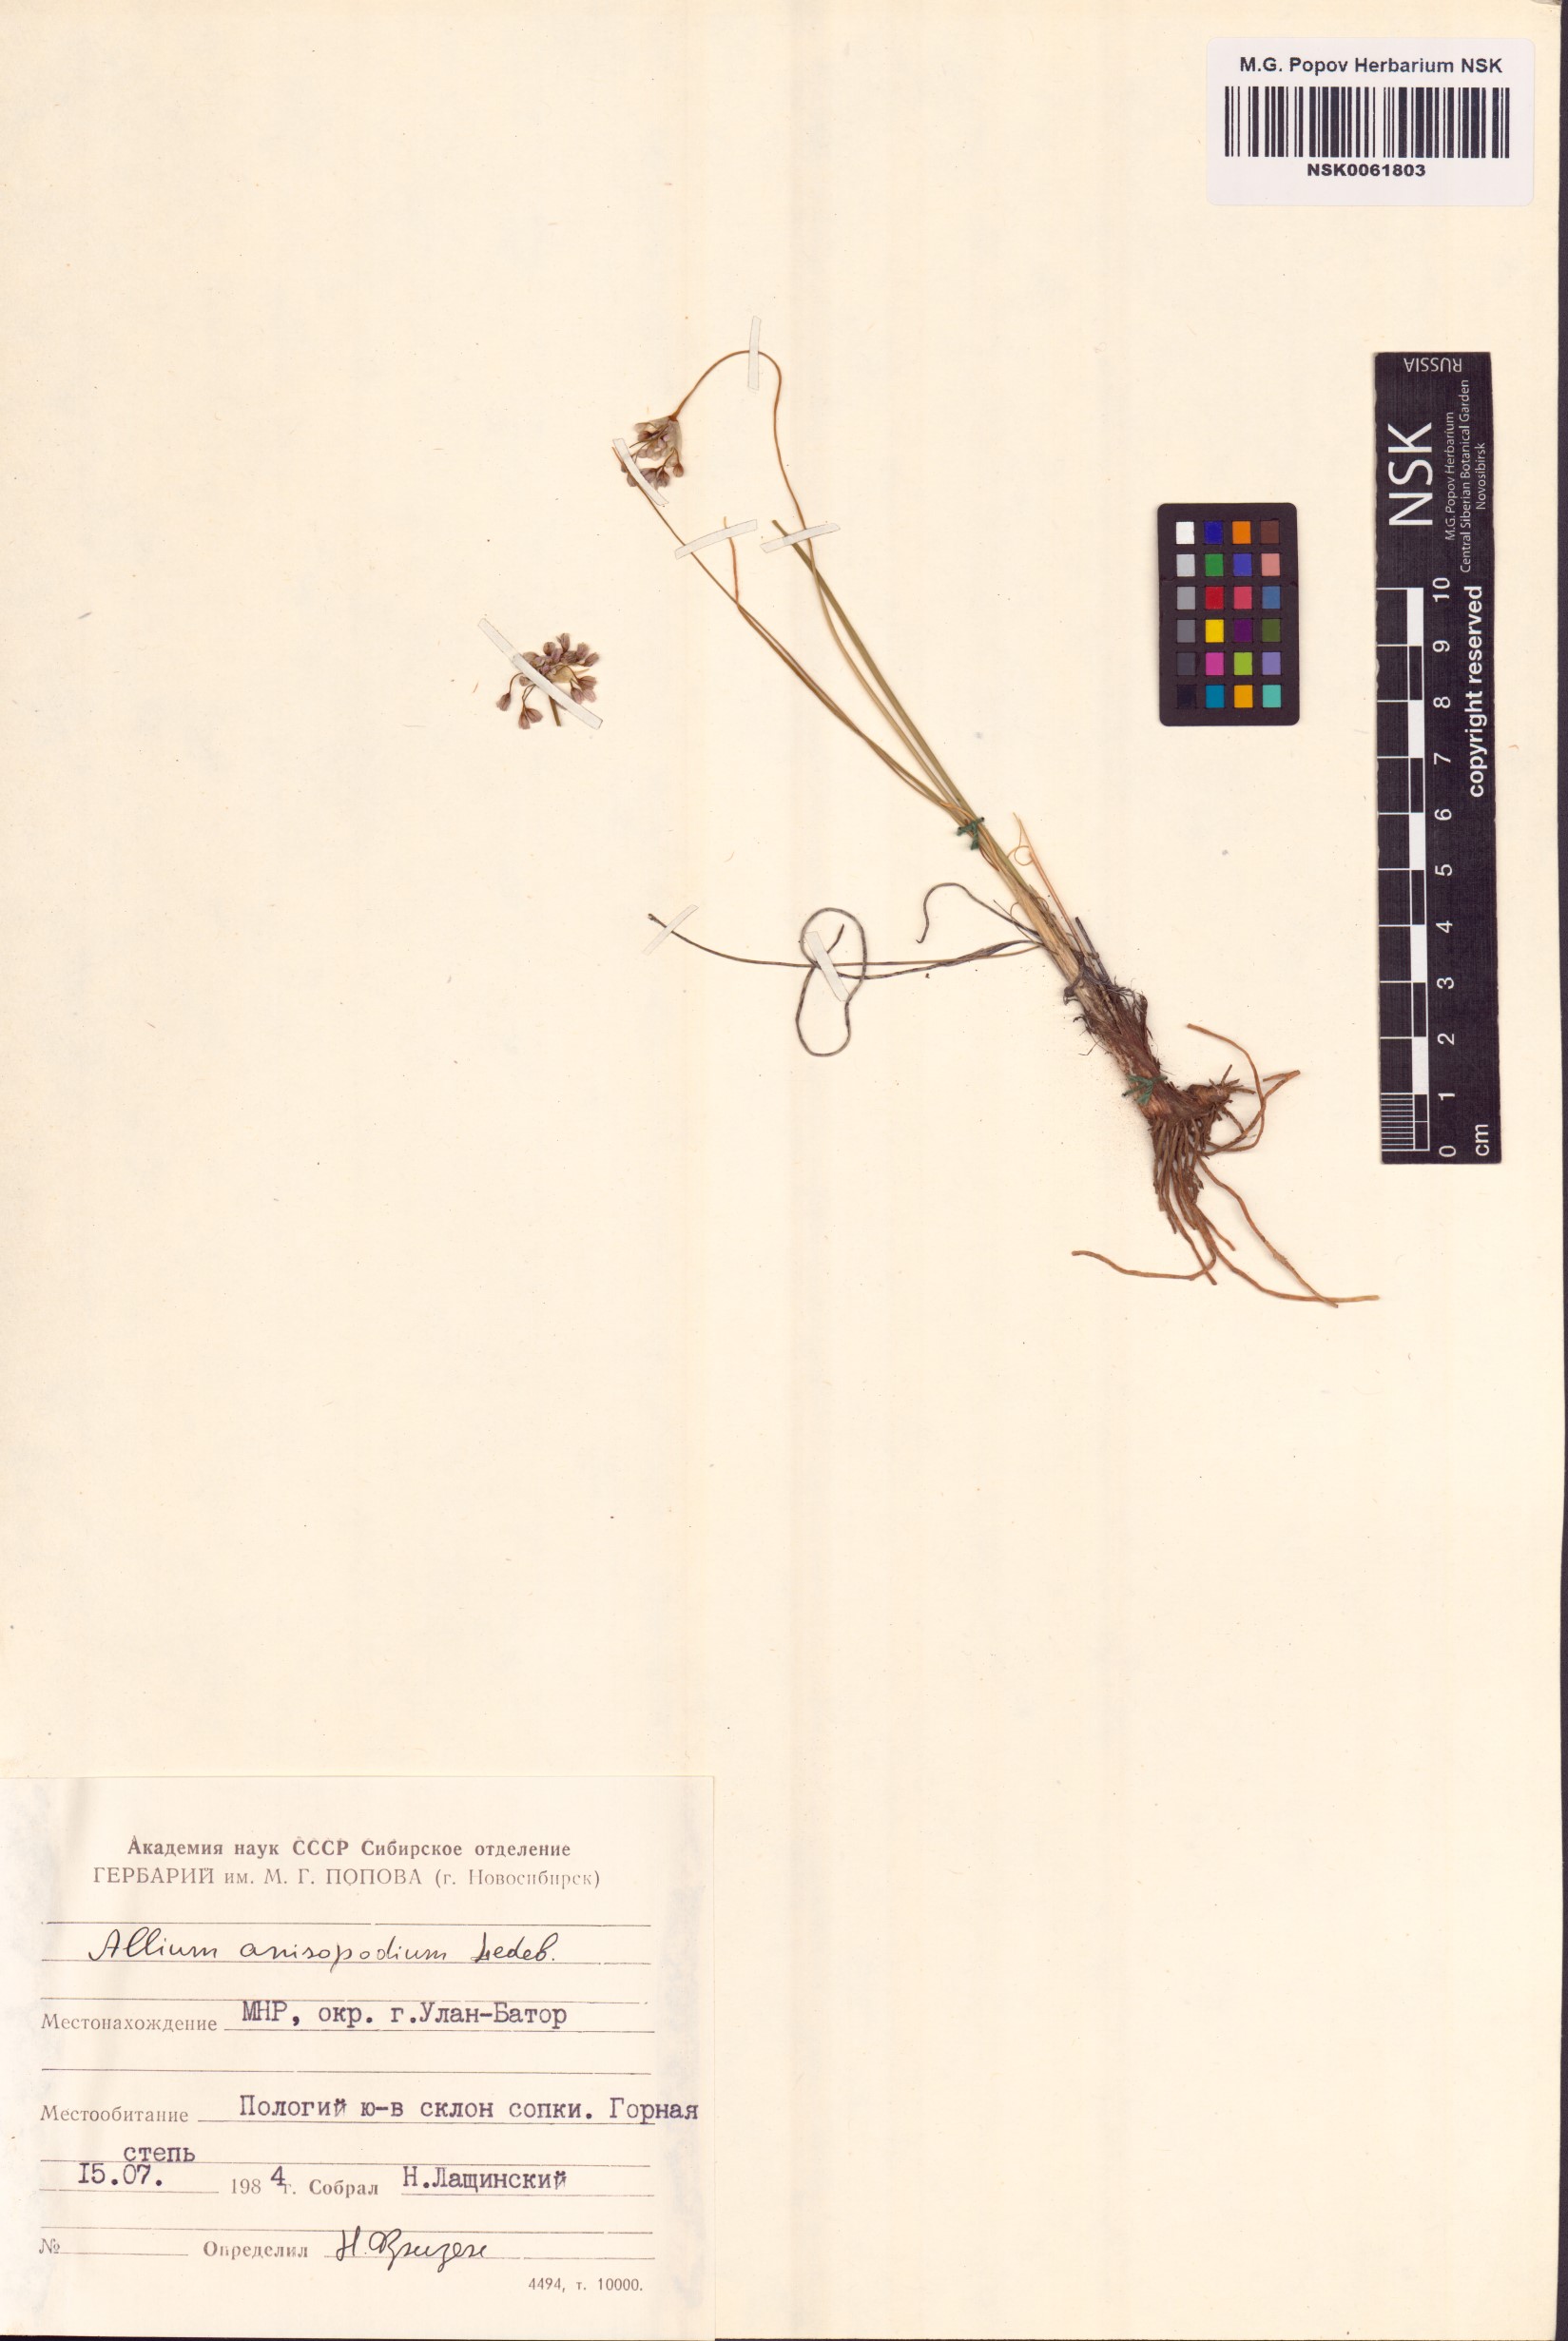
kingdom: Plantae
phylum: Tracheophyta
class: Liliopsida
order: Asparagales
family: Amaryllidaceae
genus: Allium
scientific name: Allium anisopodium
